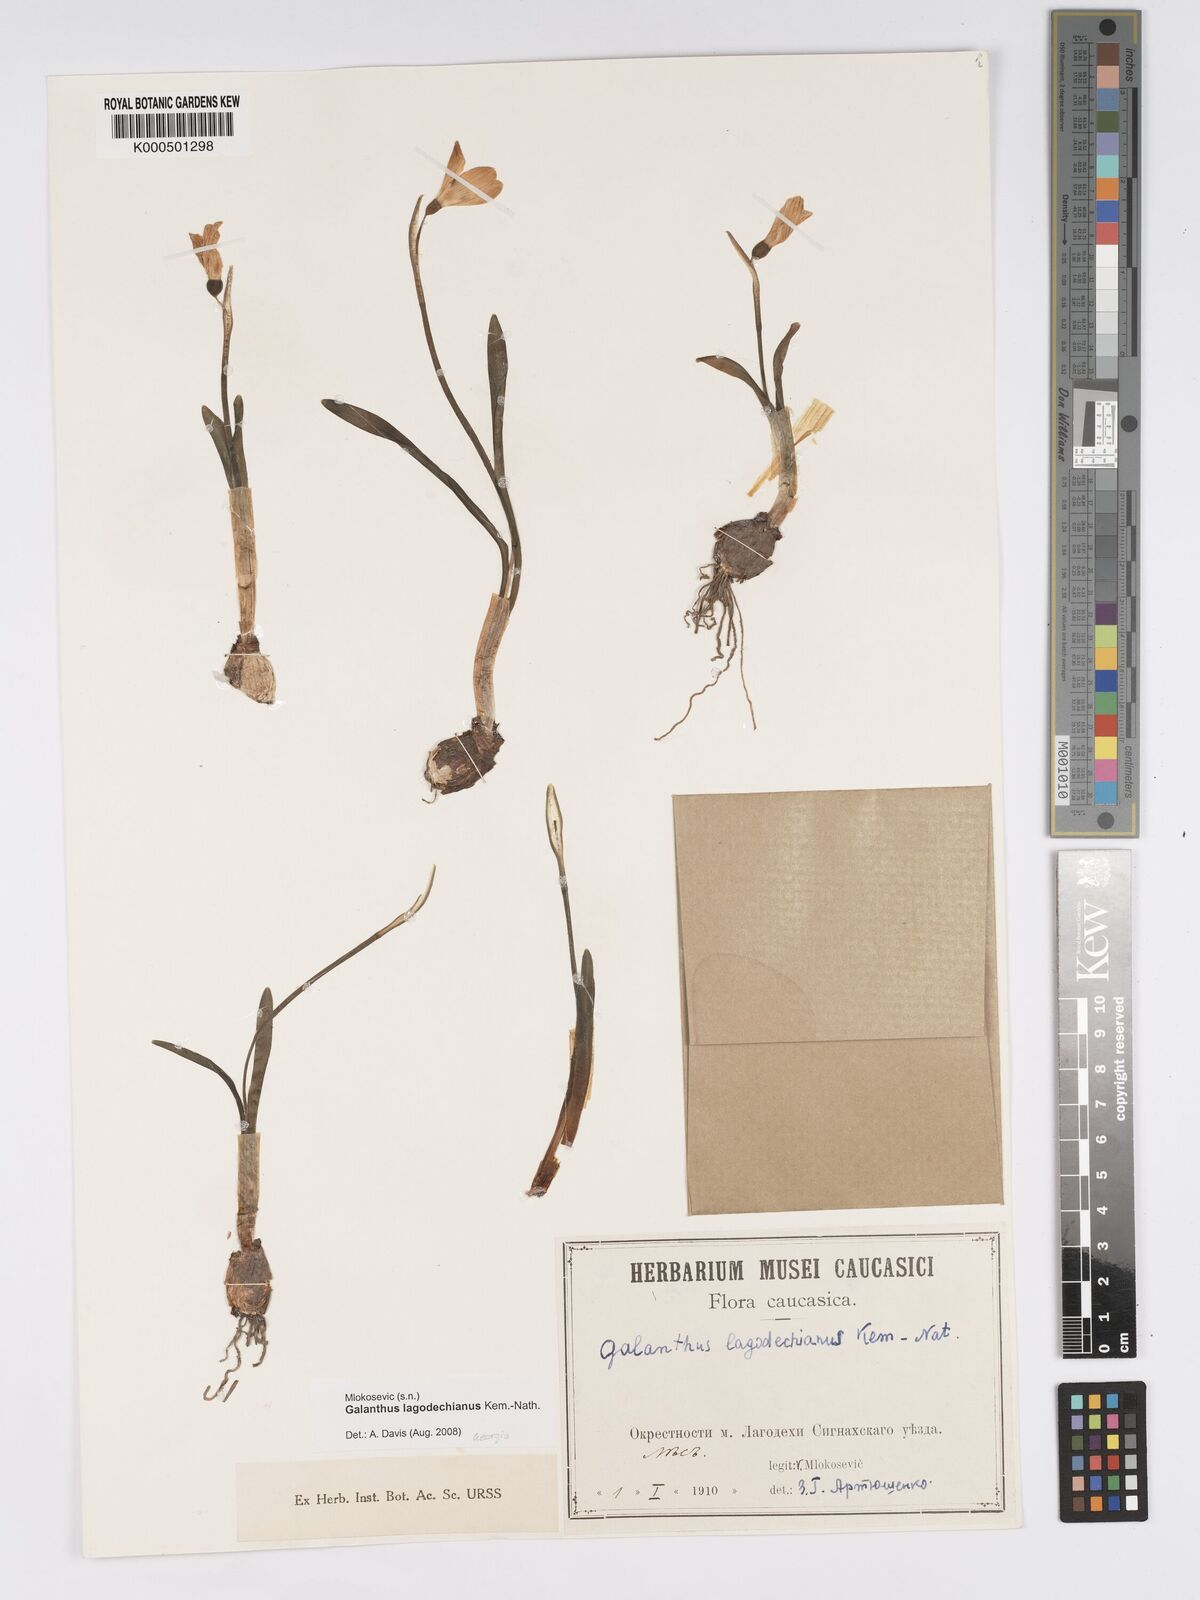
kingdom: Plantae
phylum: Tracheophyta
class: Liliopsida
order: Asparagales
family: Amaryllidaceae
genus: Galanthus
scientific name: Galanthus lagodechianus
